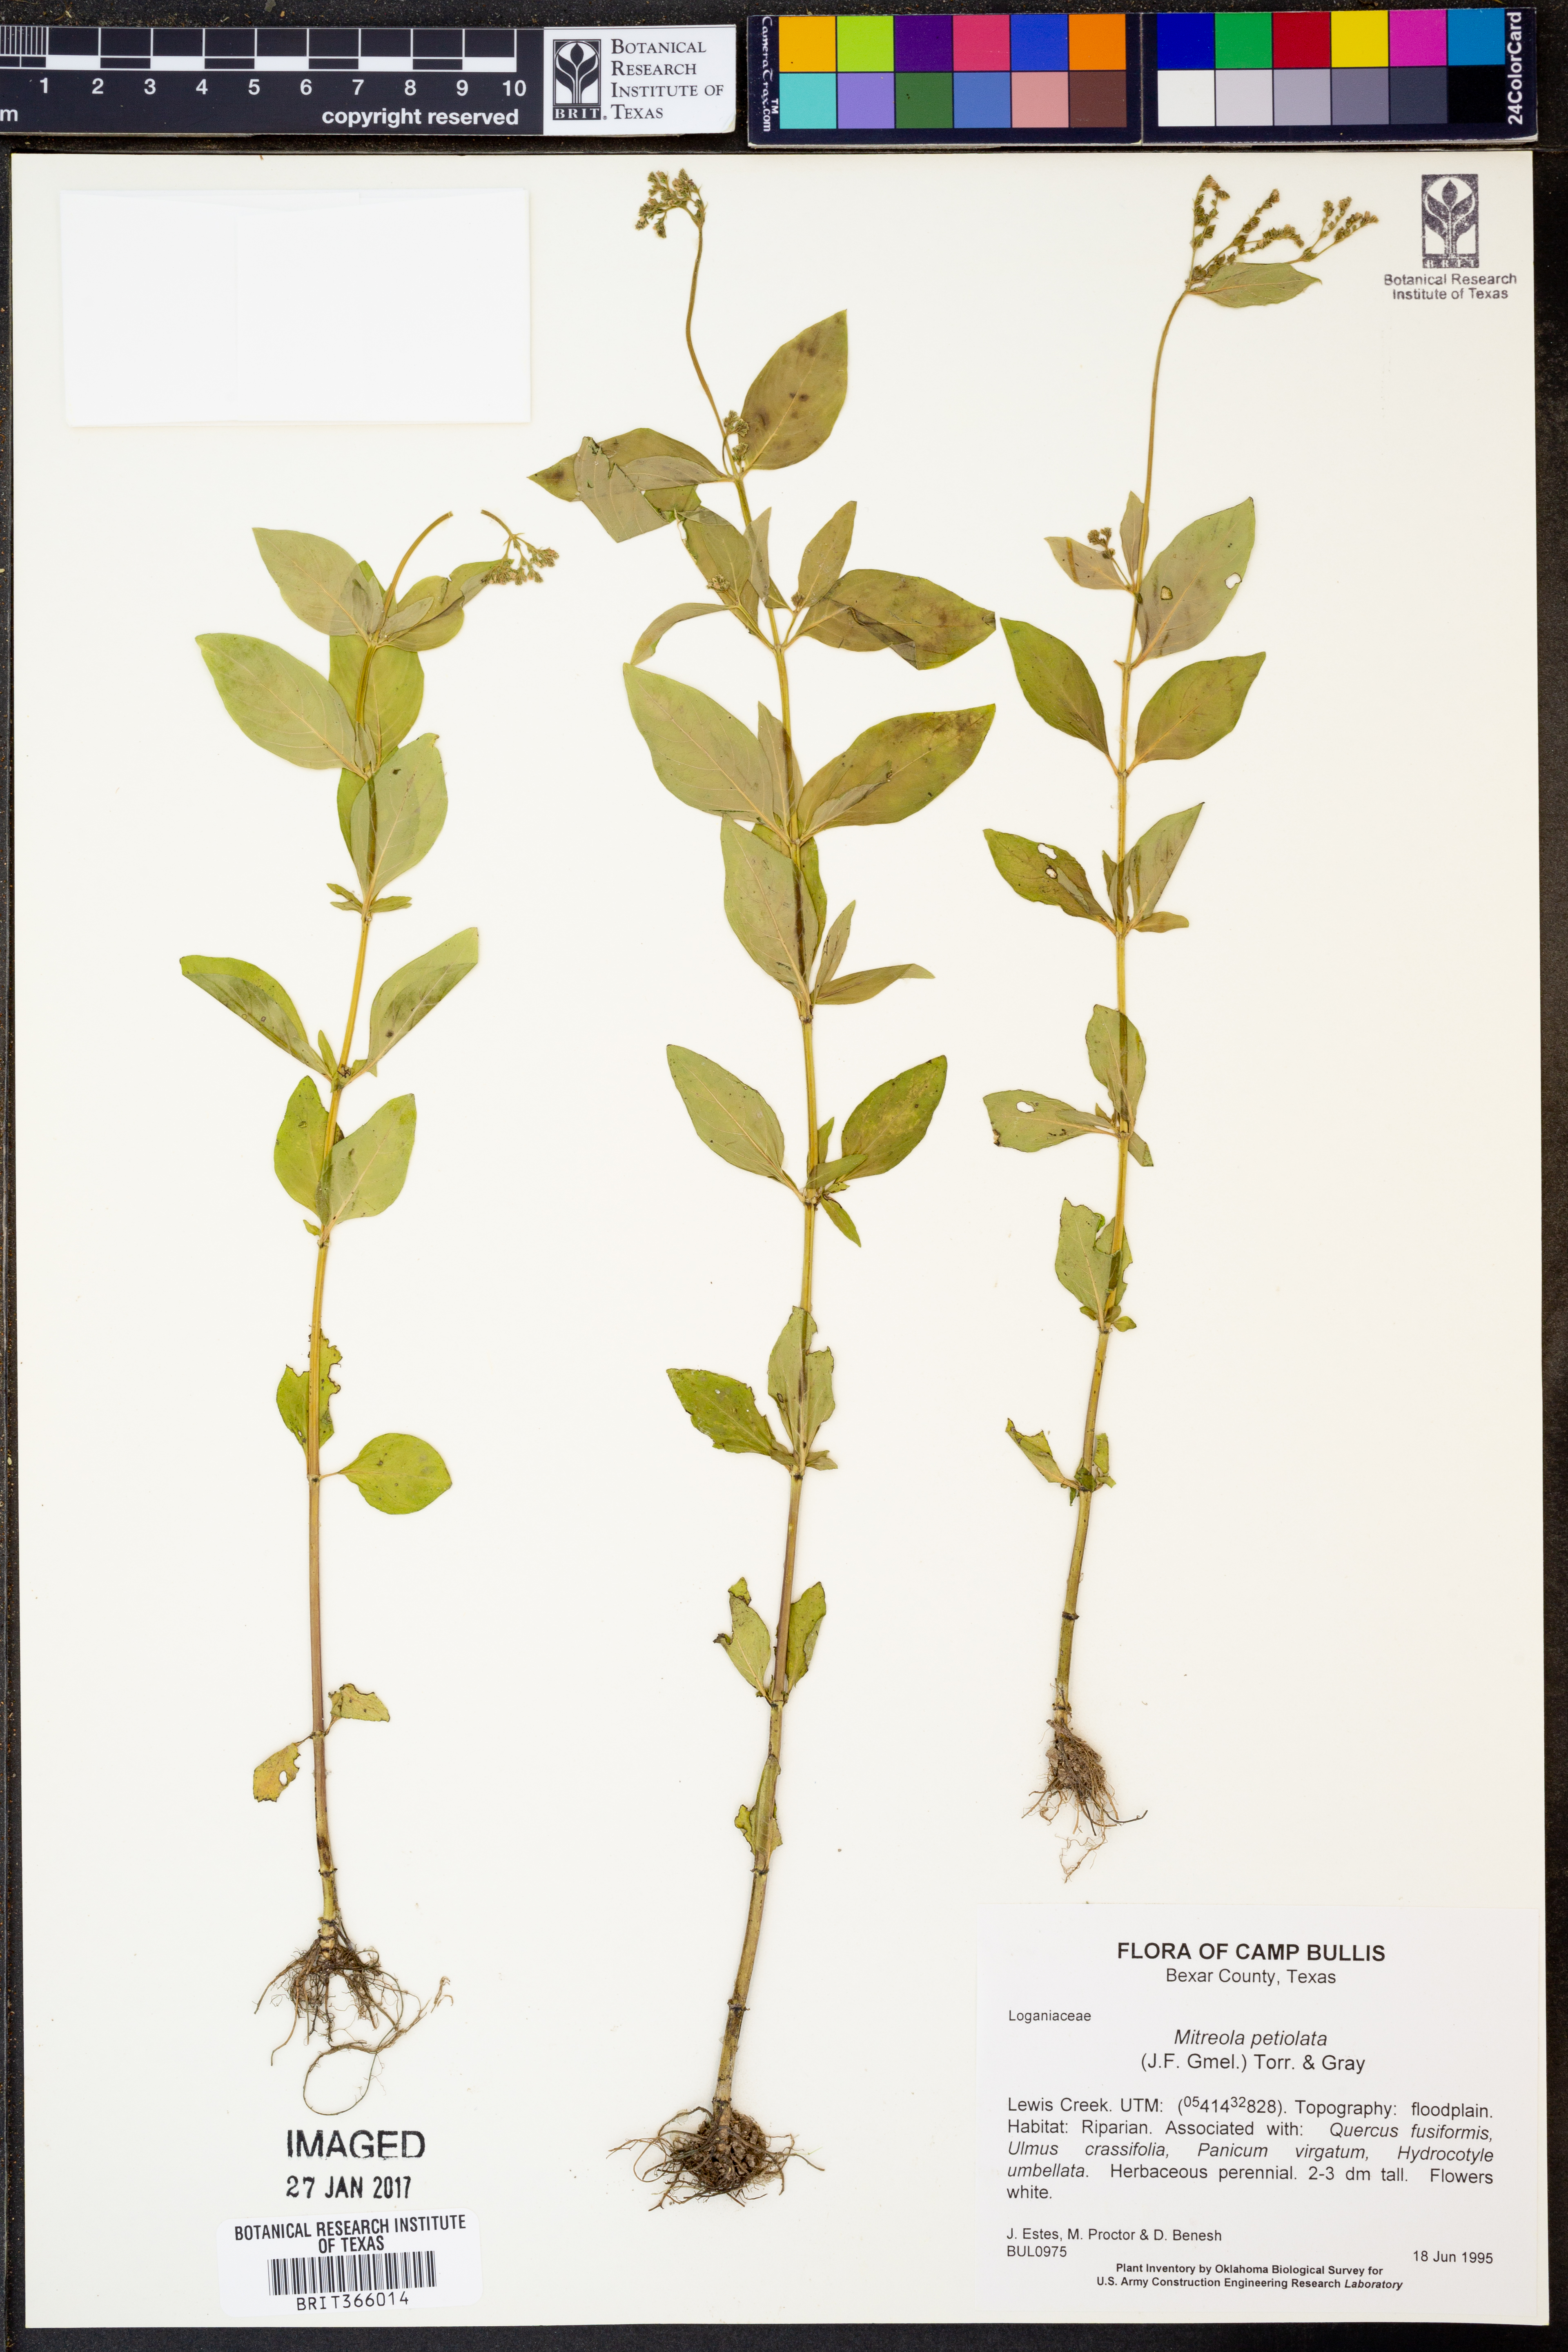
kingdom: Plantae
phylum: Tracheophyta
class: Magnoliopsida
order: Gentianales
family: Loganiaceae
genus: Mitreola
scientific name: Mitreola petiolata
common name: Lax hornpod
